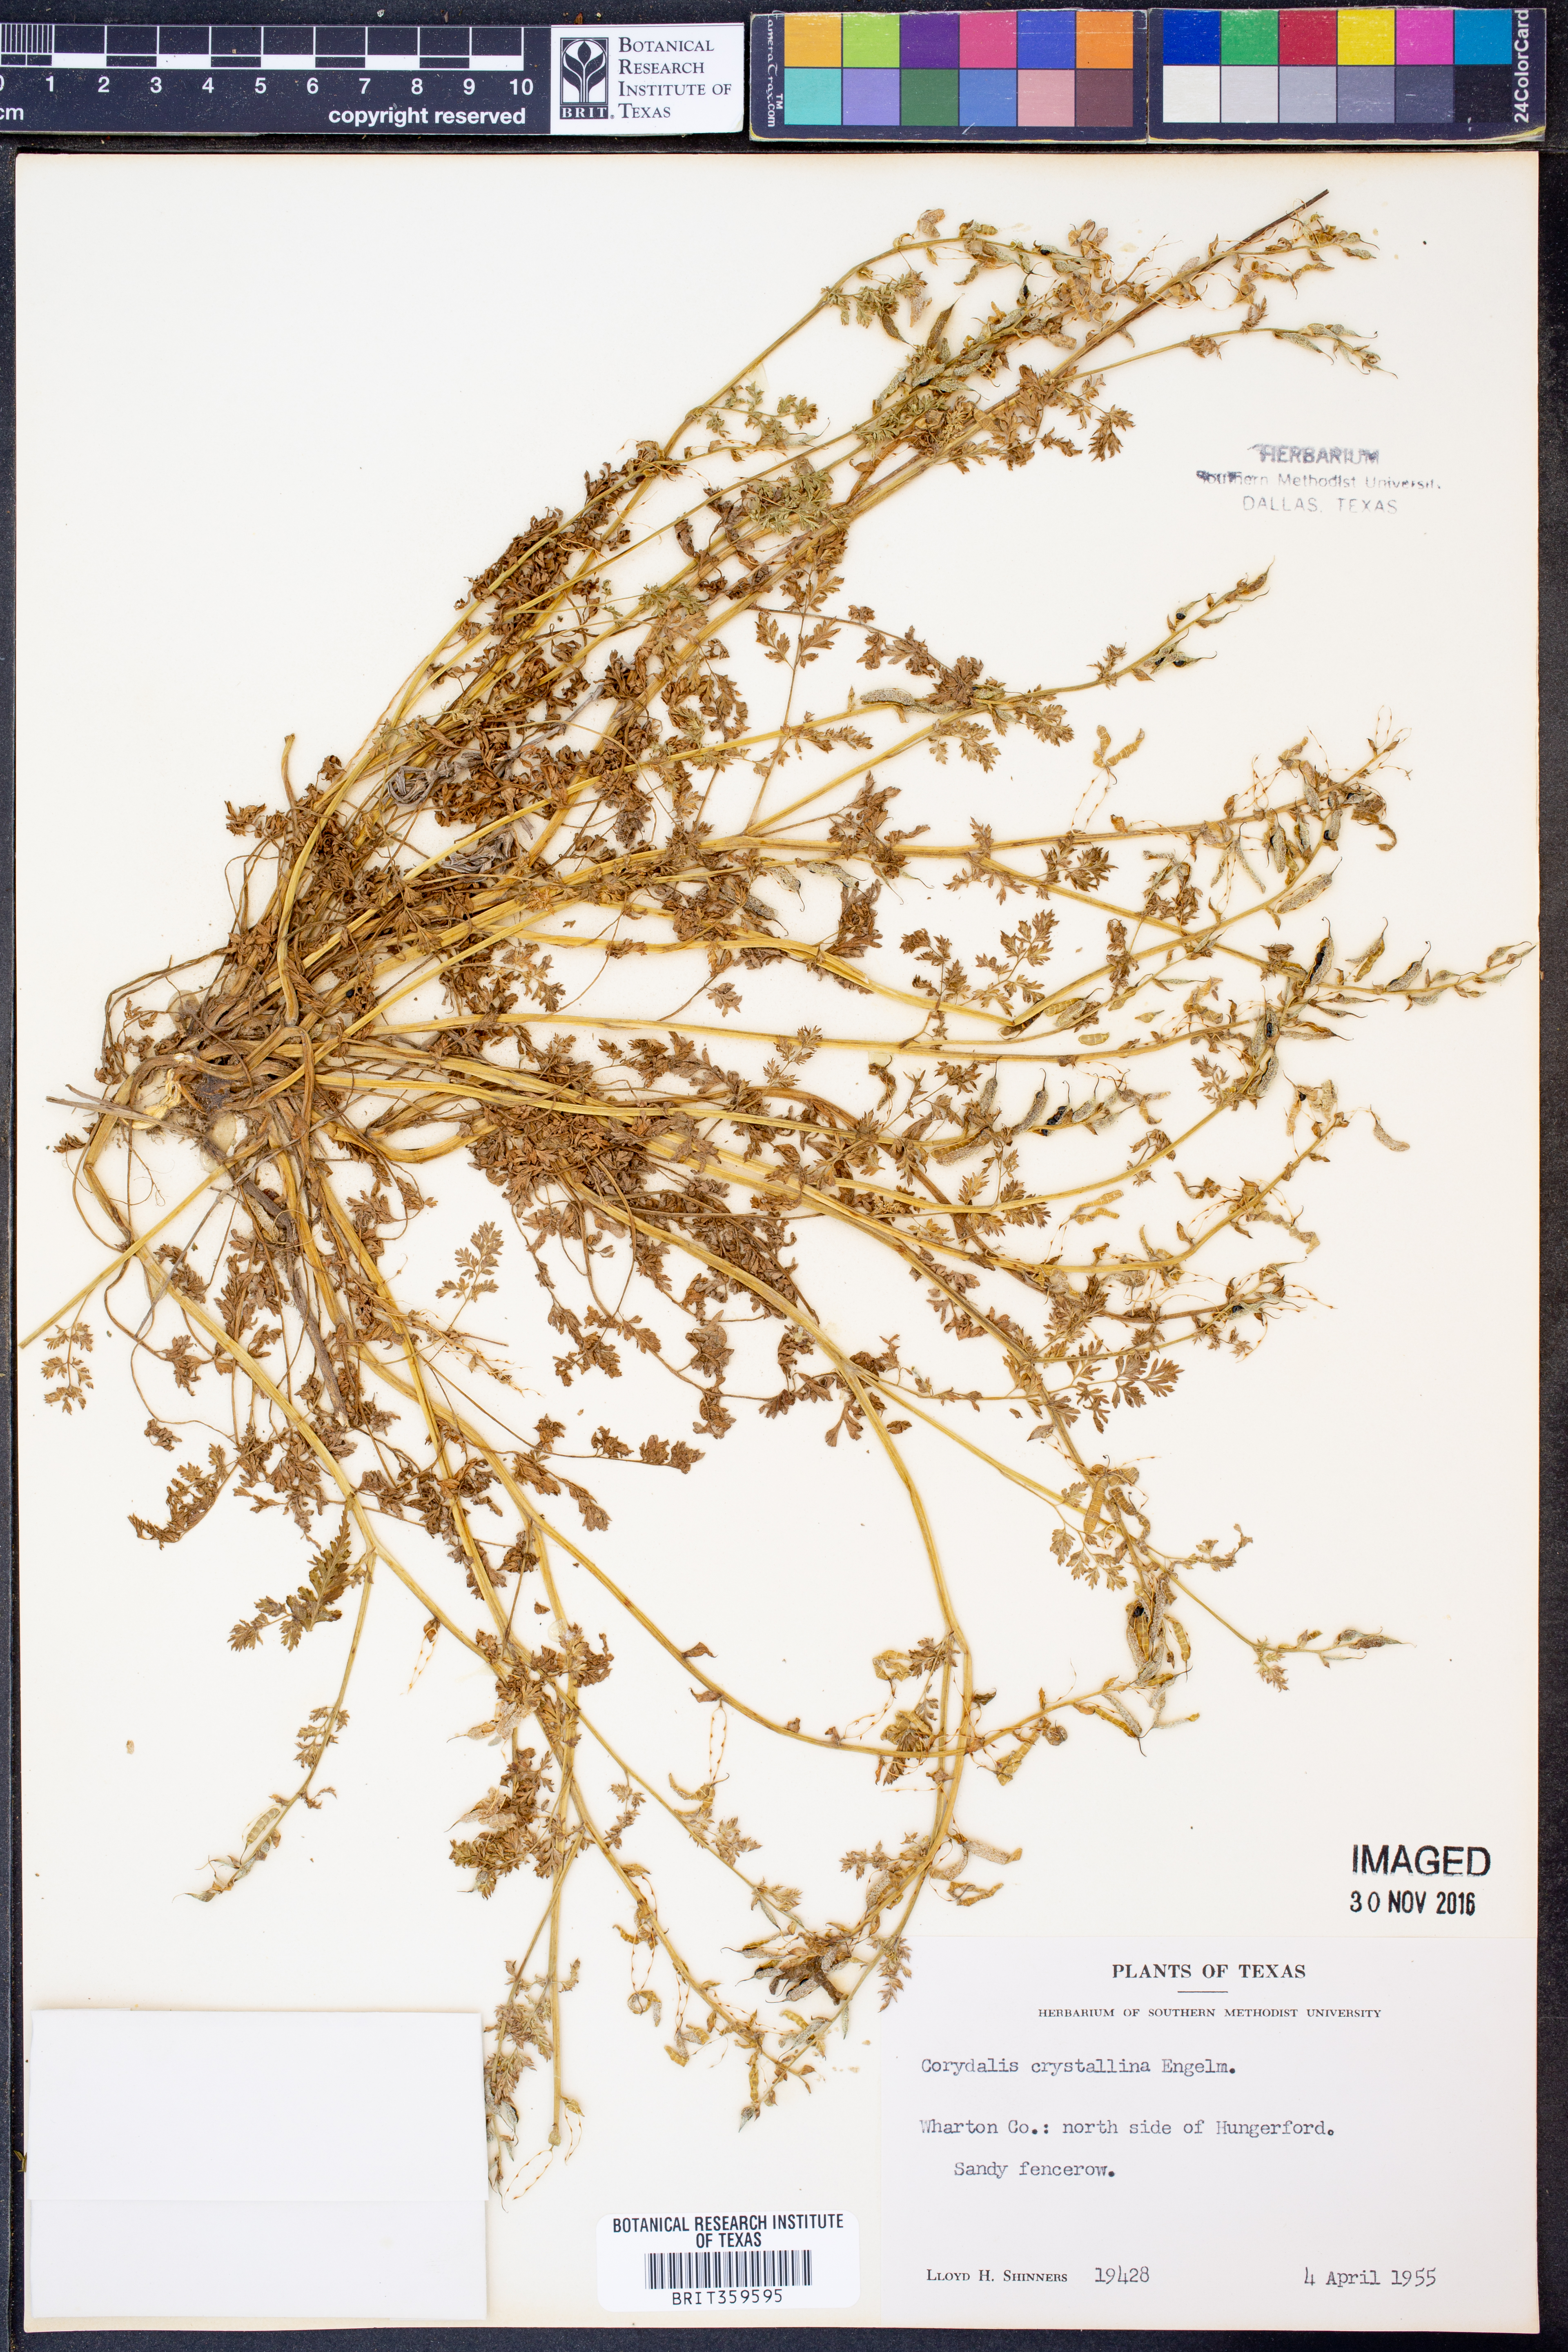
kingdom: Plantae
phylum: Tracheophyta
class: Magnoliopsida
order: Ranunculales
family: Papaveraceae
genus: Corydalis
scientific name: Corydalis crystallina
